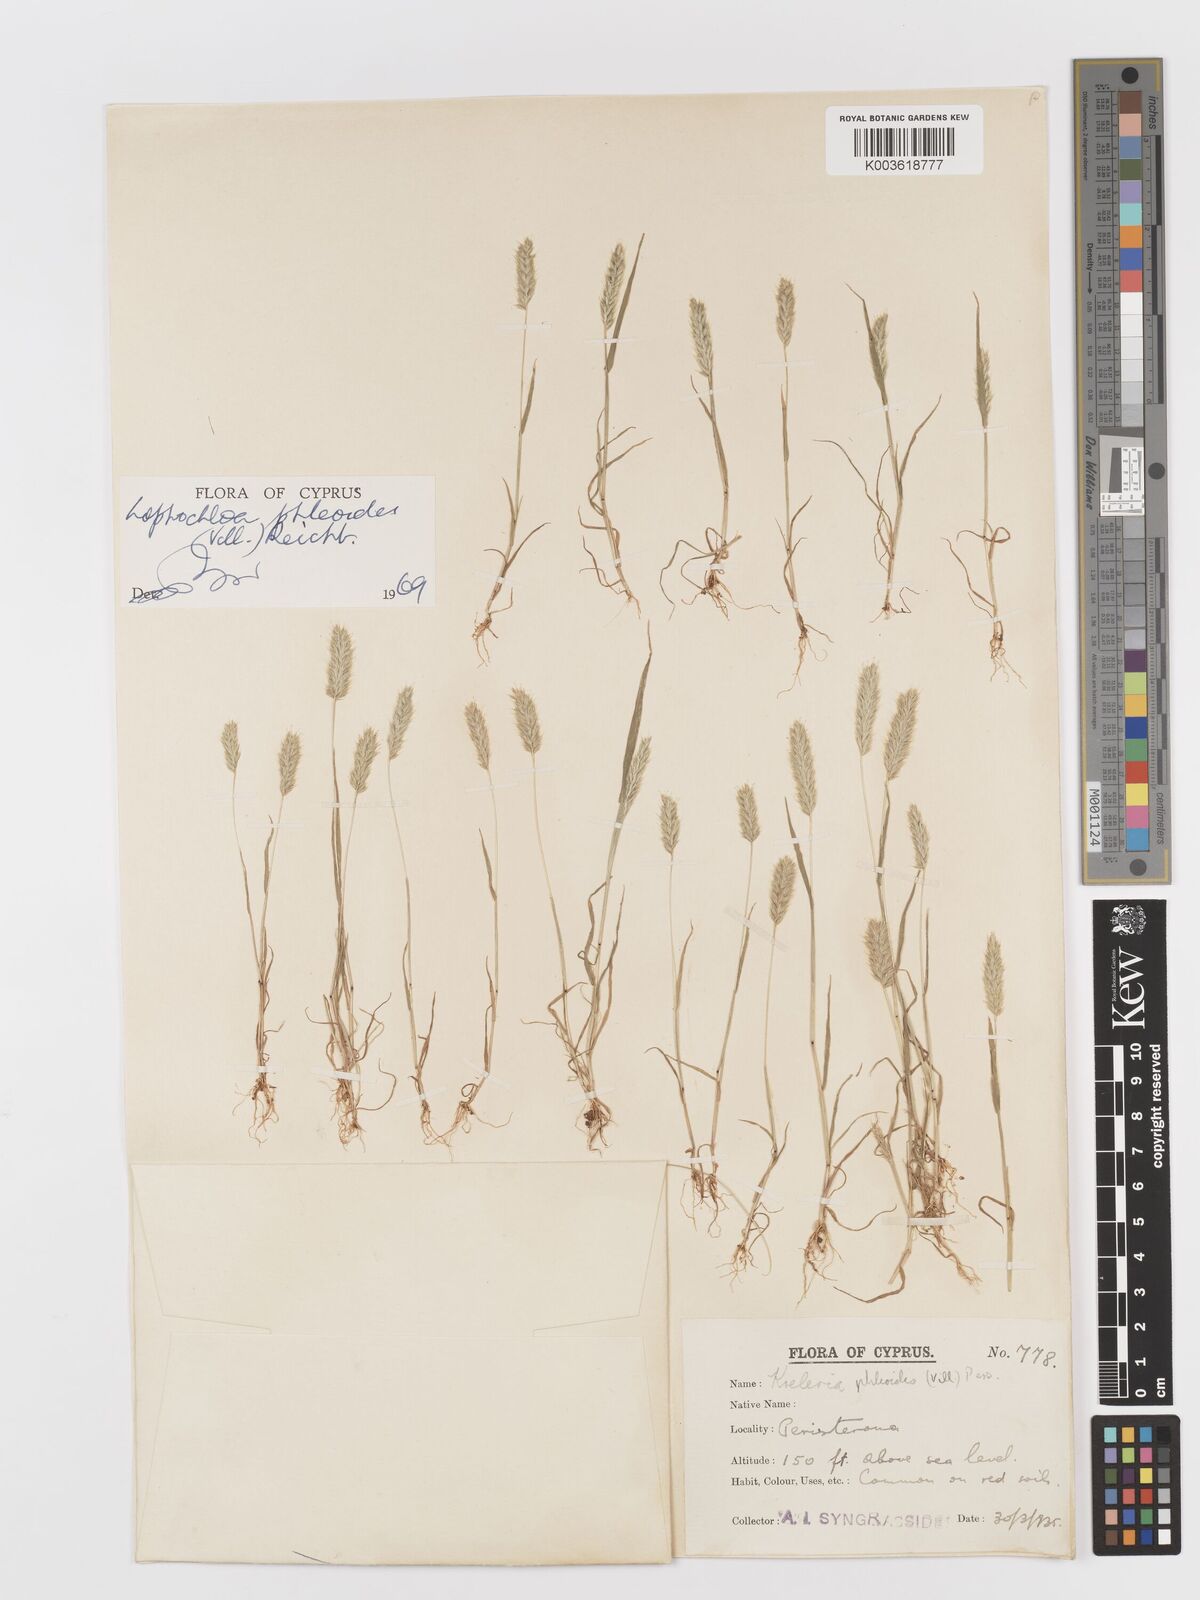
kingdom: Plantae
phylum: Tracheophyta
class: Liliopsida
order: Poales
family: Poaceae
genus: Rostraria
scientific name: Rostraria cristata
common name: Mediterranean hair-grass
